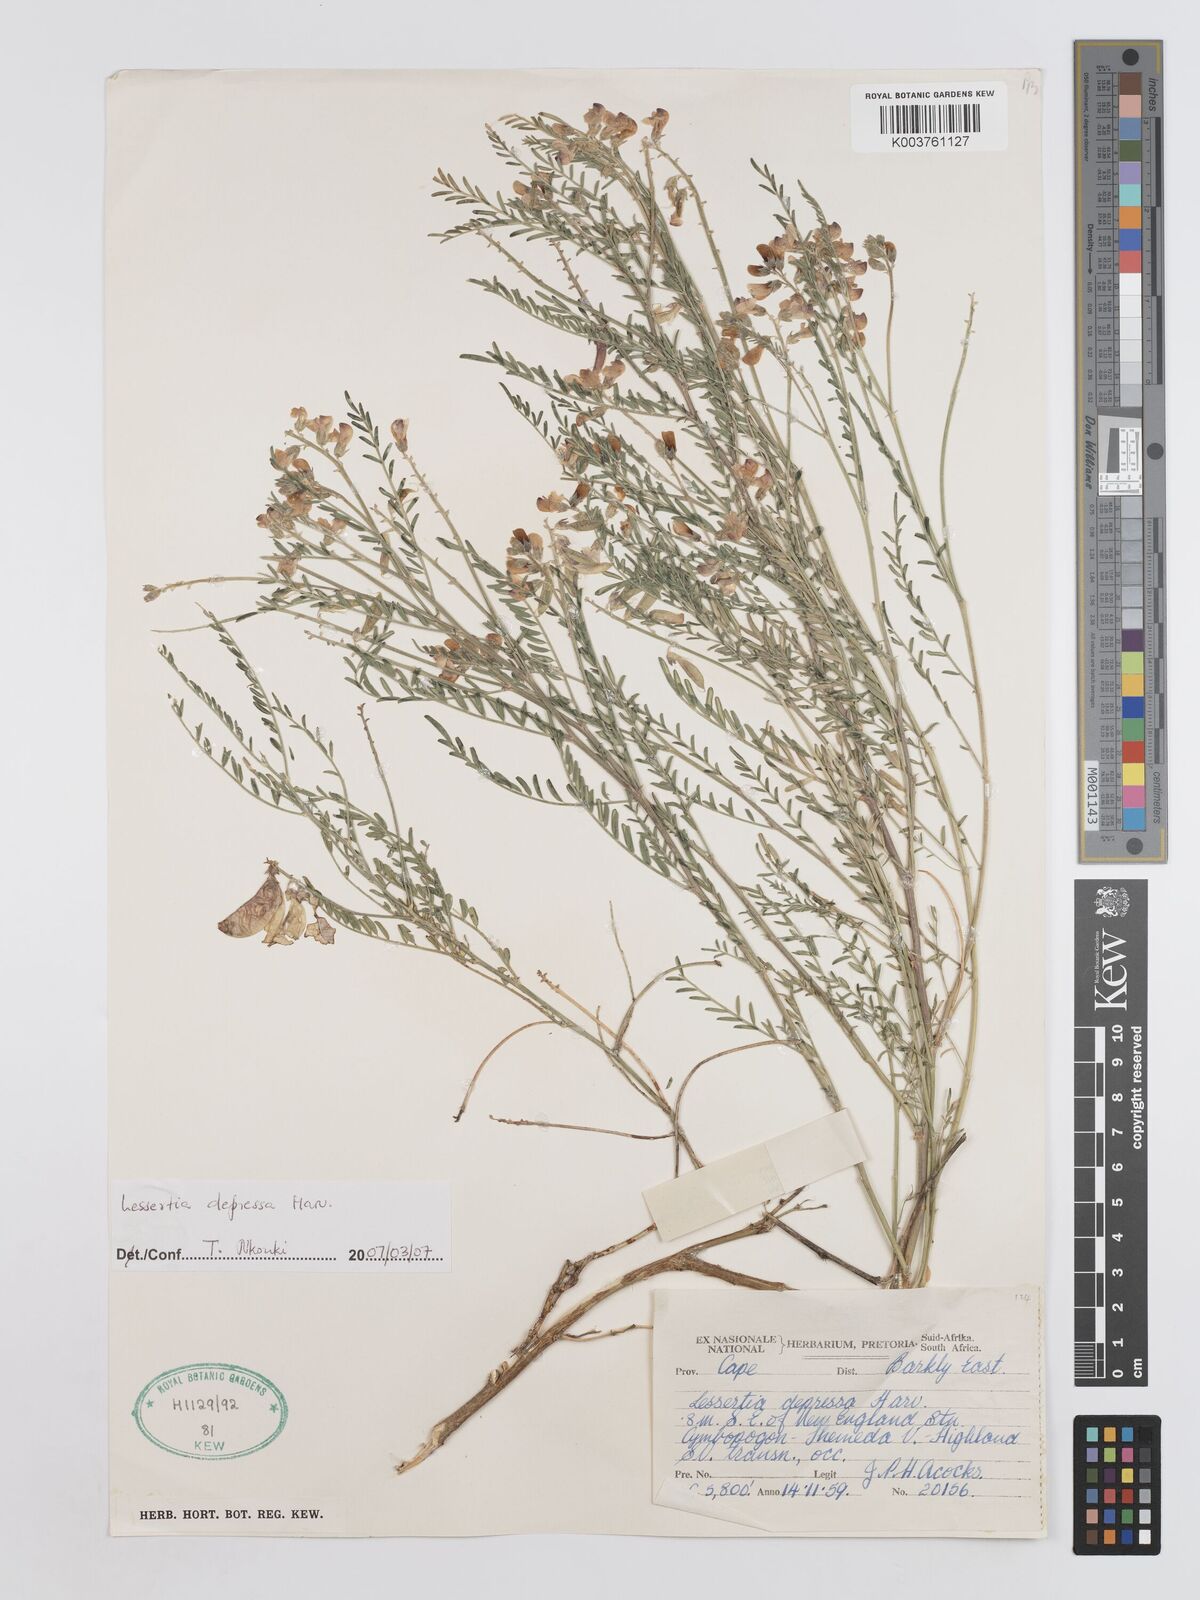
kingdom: Plantae
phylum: Tracheophyta
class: Magnoliopsida
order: Fabales
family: Fabaceae
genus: Lessertia
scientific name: Lessertia depressa
